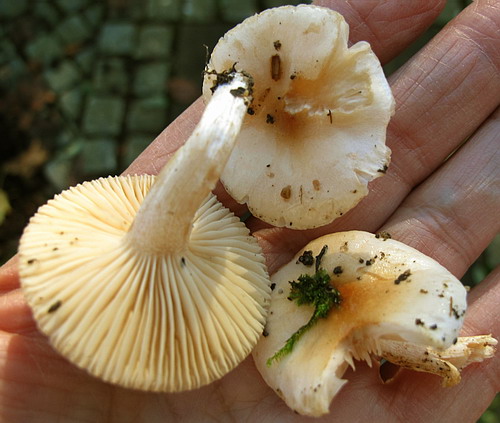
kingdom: Fungi
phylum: Basidiomycota
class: Agaricomycetes
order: Agaricales
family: Hygrophoraceae
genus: Hygrophorus
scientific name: Hygrophorus unicolor
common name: orangeøjet sneglehat
